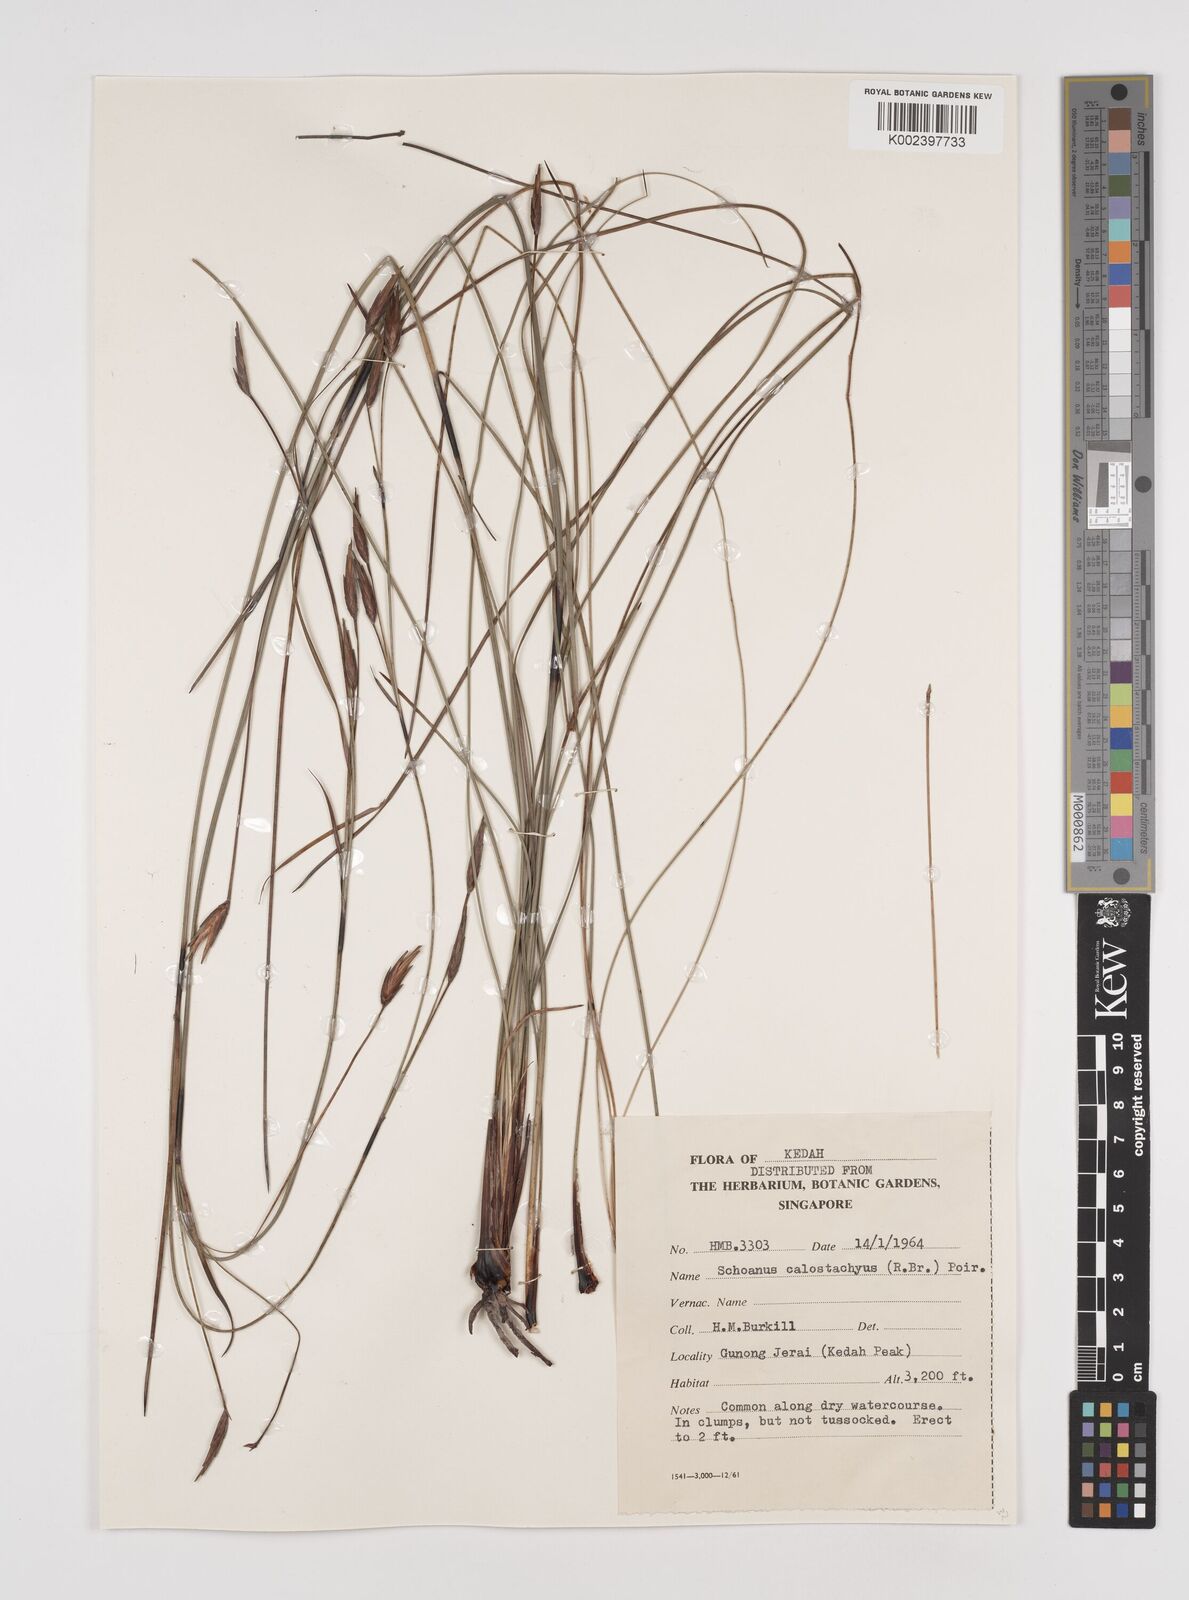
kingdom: Plantae
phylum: Tracheophyta
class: Liliopsida
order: Poales
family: Cyperaceae
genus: Schoenus
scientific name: Schoenus calostachyus
